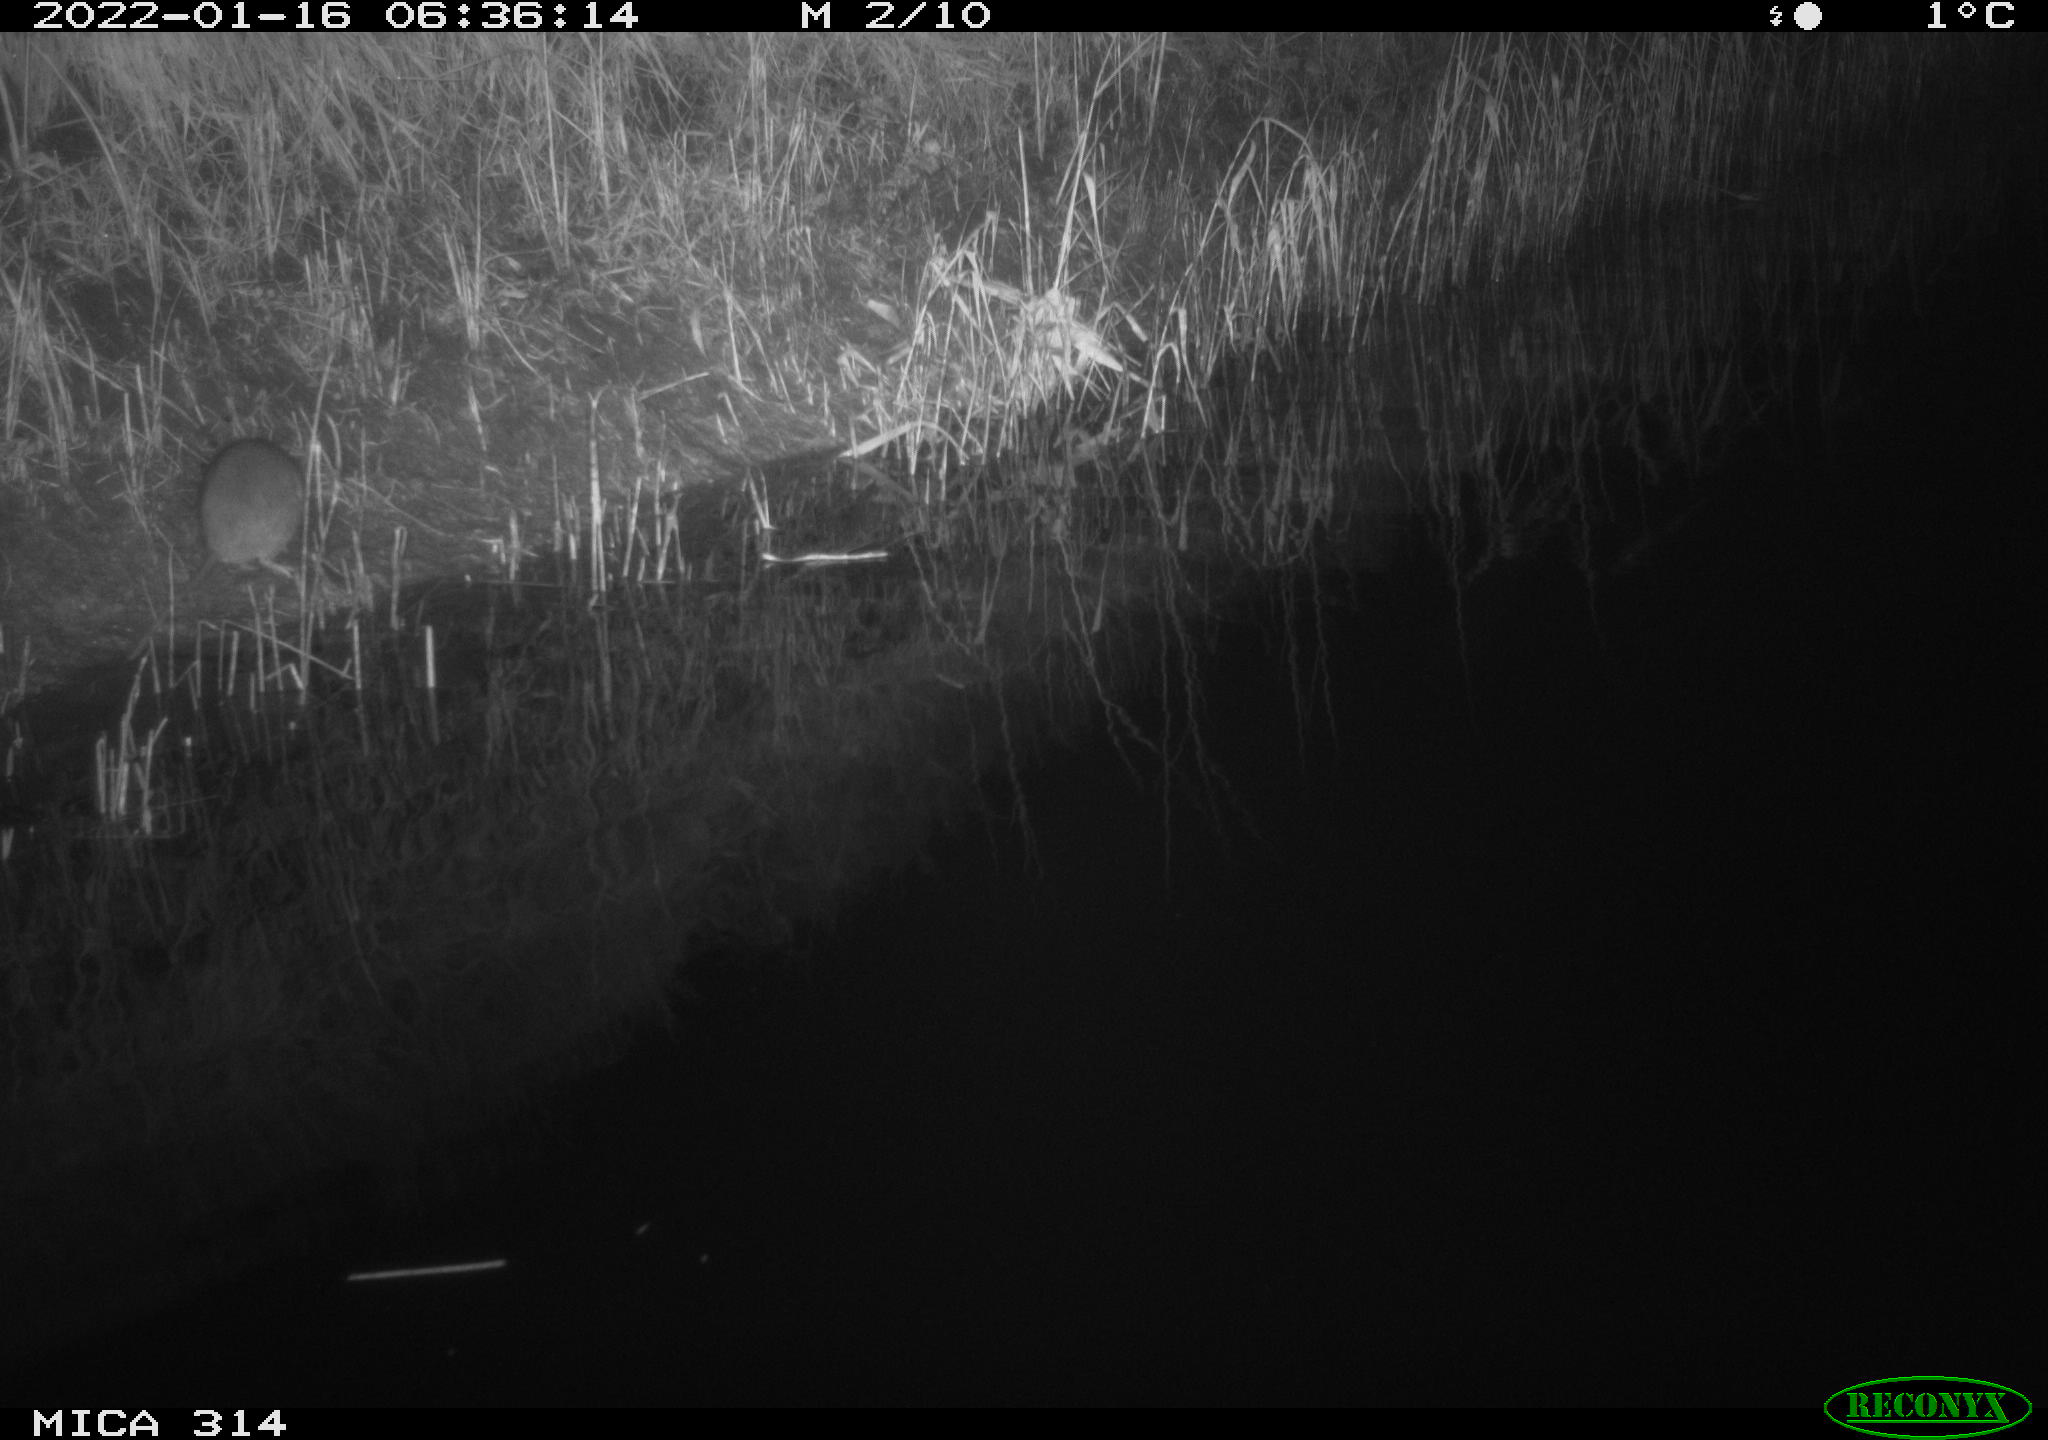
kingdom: Animalia
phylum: Chordata
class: Mammalia
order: Rodentia
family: Muridae
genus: Rattus
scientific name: Rattus norvegicus
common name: Brown rat
